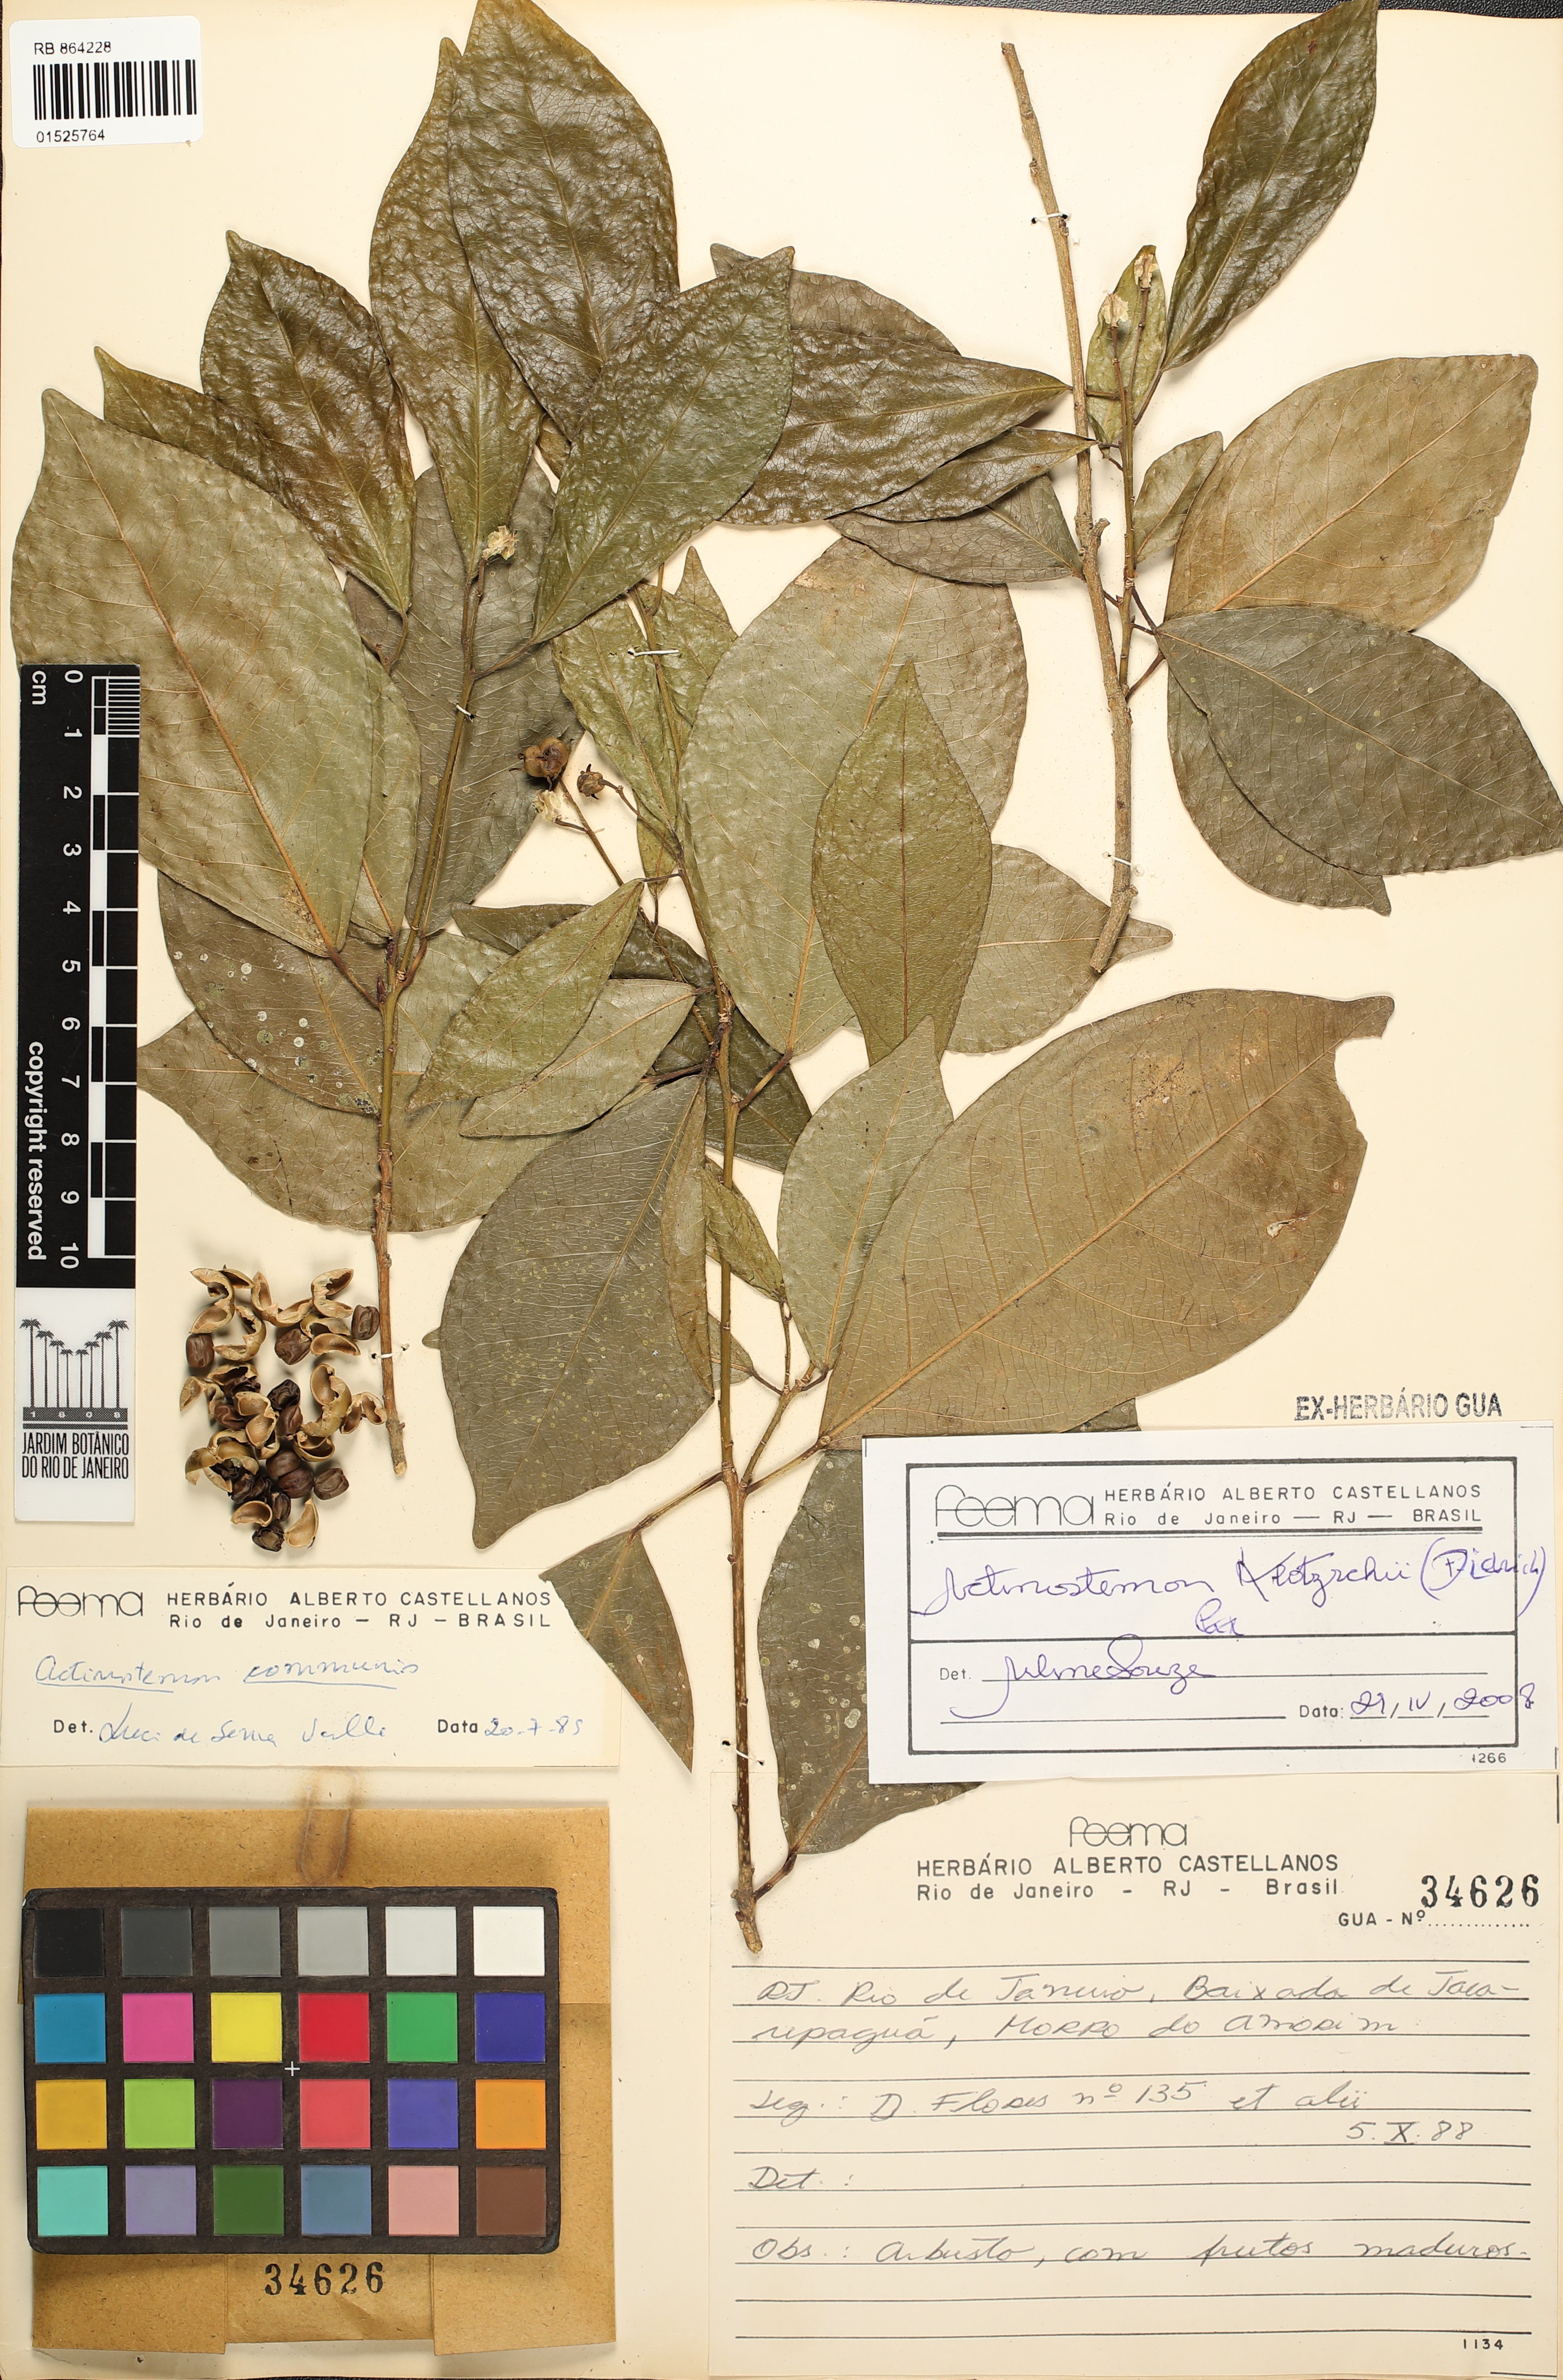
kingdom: Plantae
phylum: Tracheophyta
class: Magnoliopsida
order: Malpighiales
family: Euphorbiaceae
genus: Actinostemon
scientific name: Actinostemon klotzschii
